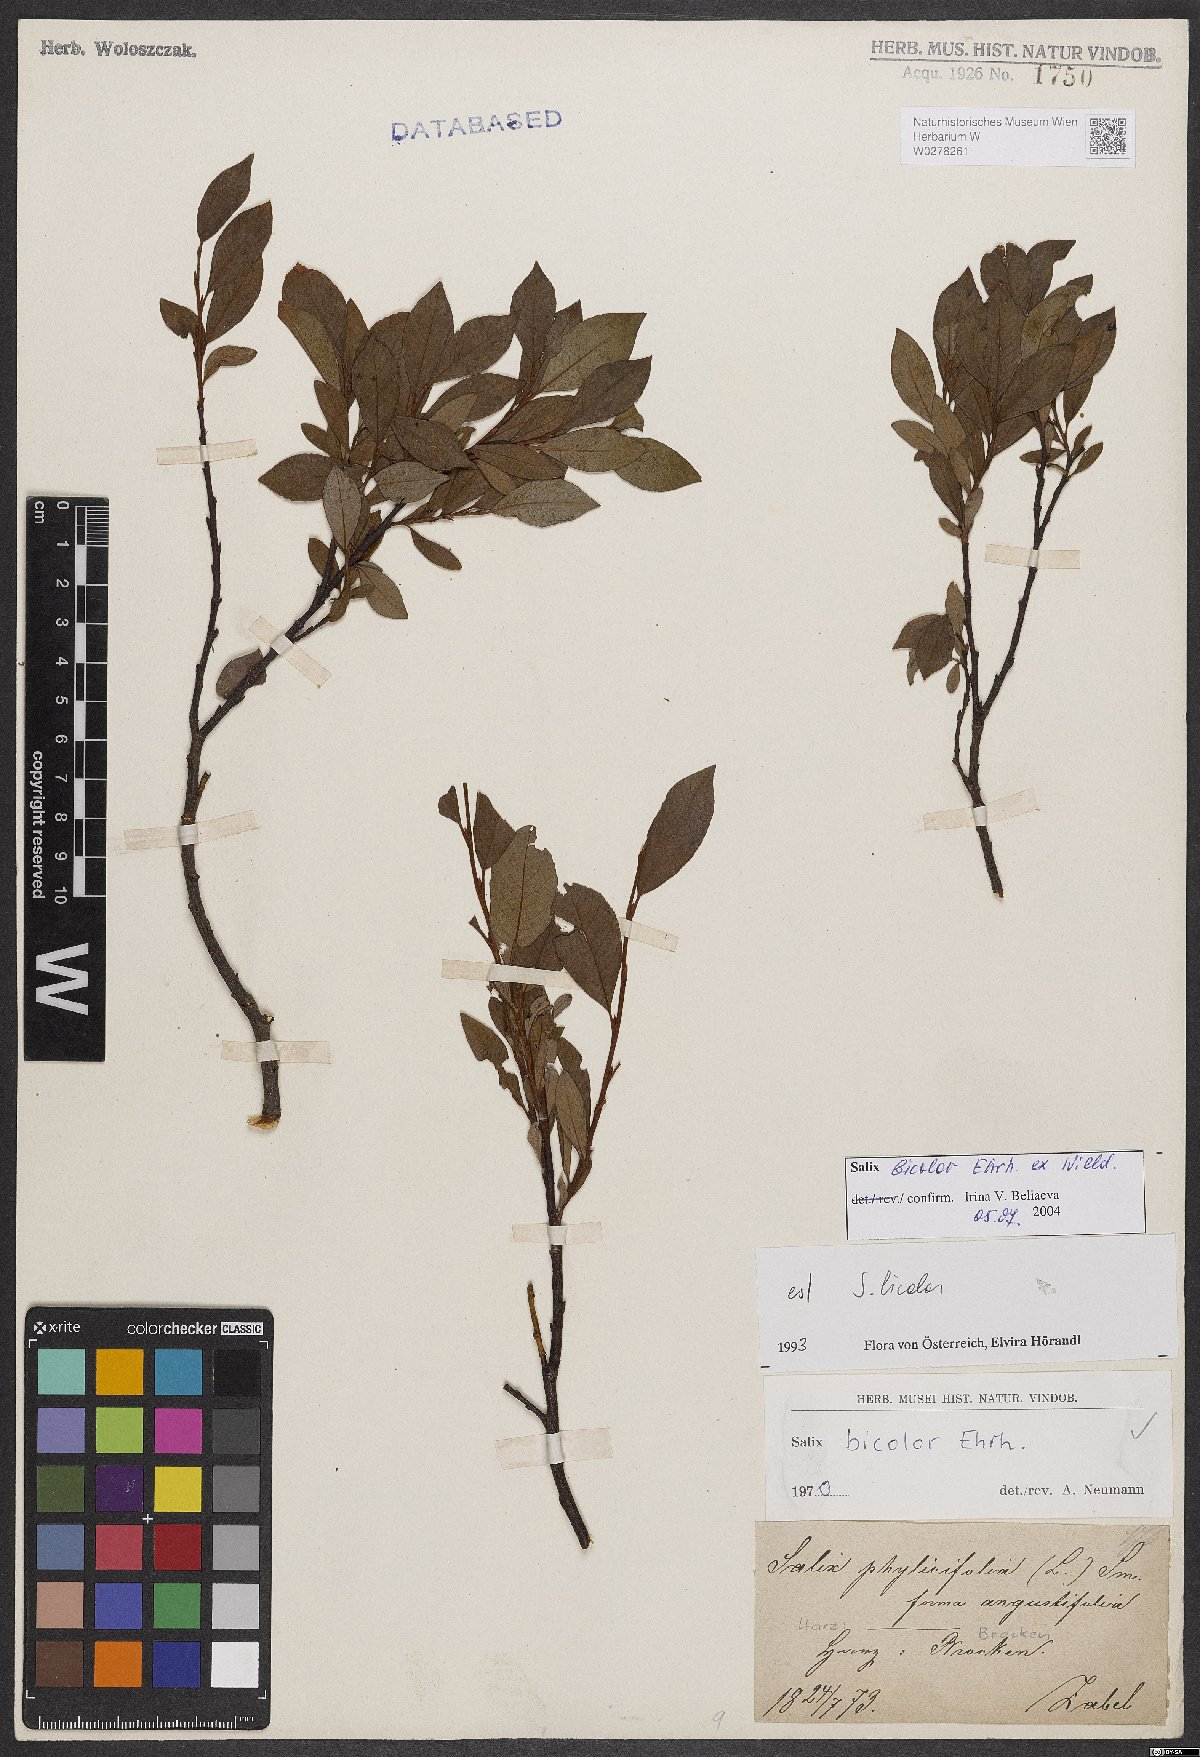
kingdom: Plantae
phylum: Tracheophyta
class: Magnoliopsida
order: Malpighiales
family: Salicaceae
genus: Salix
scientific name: Salix bicolor
